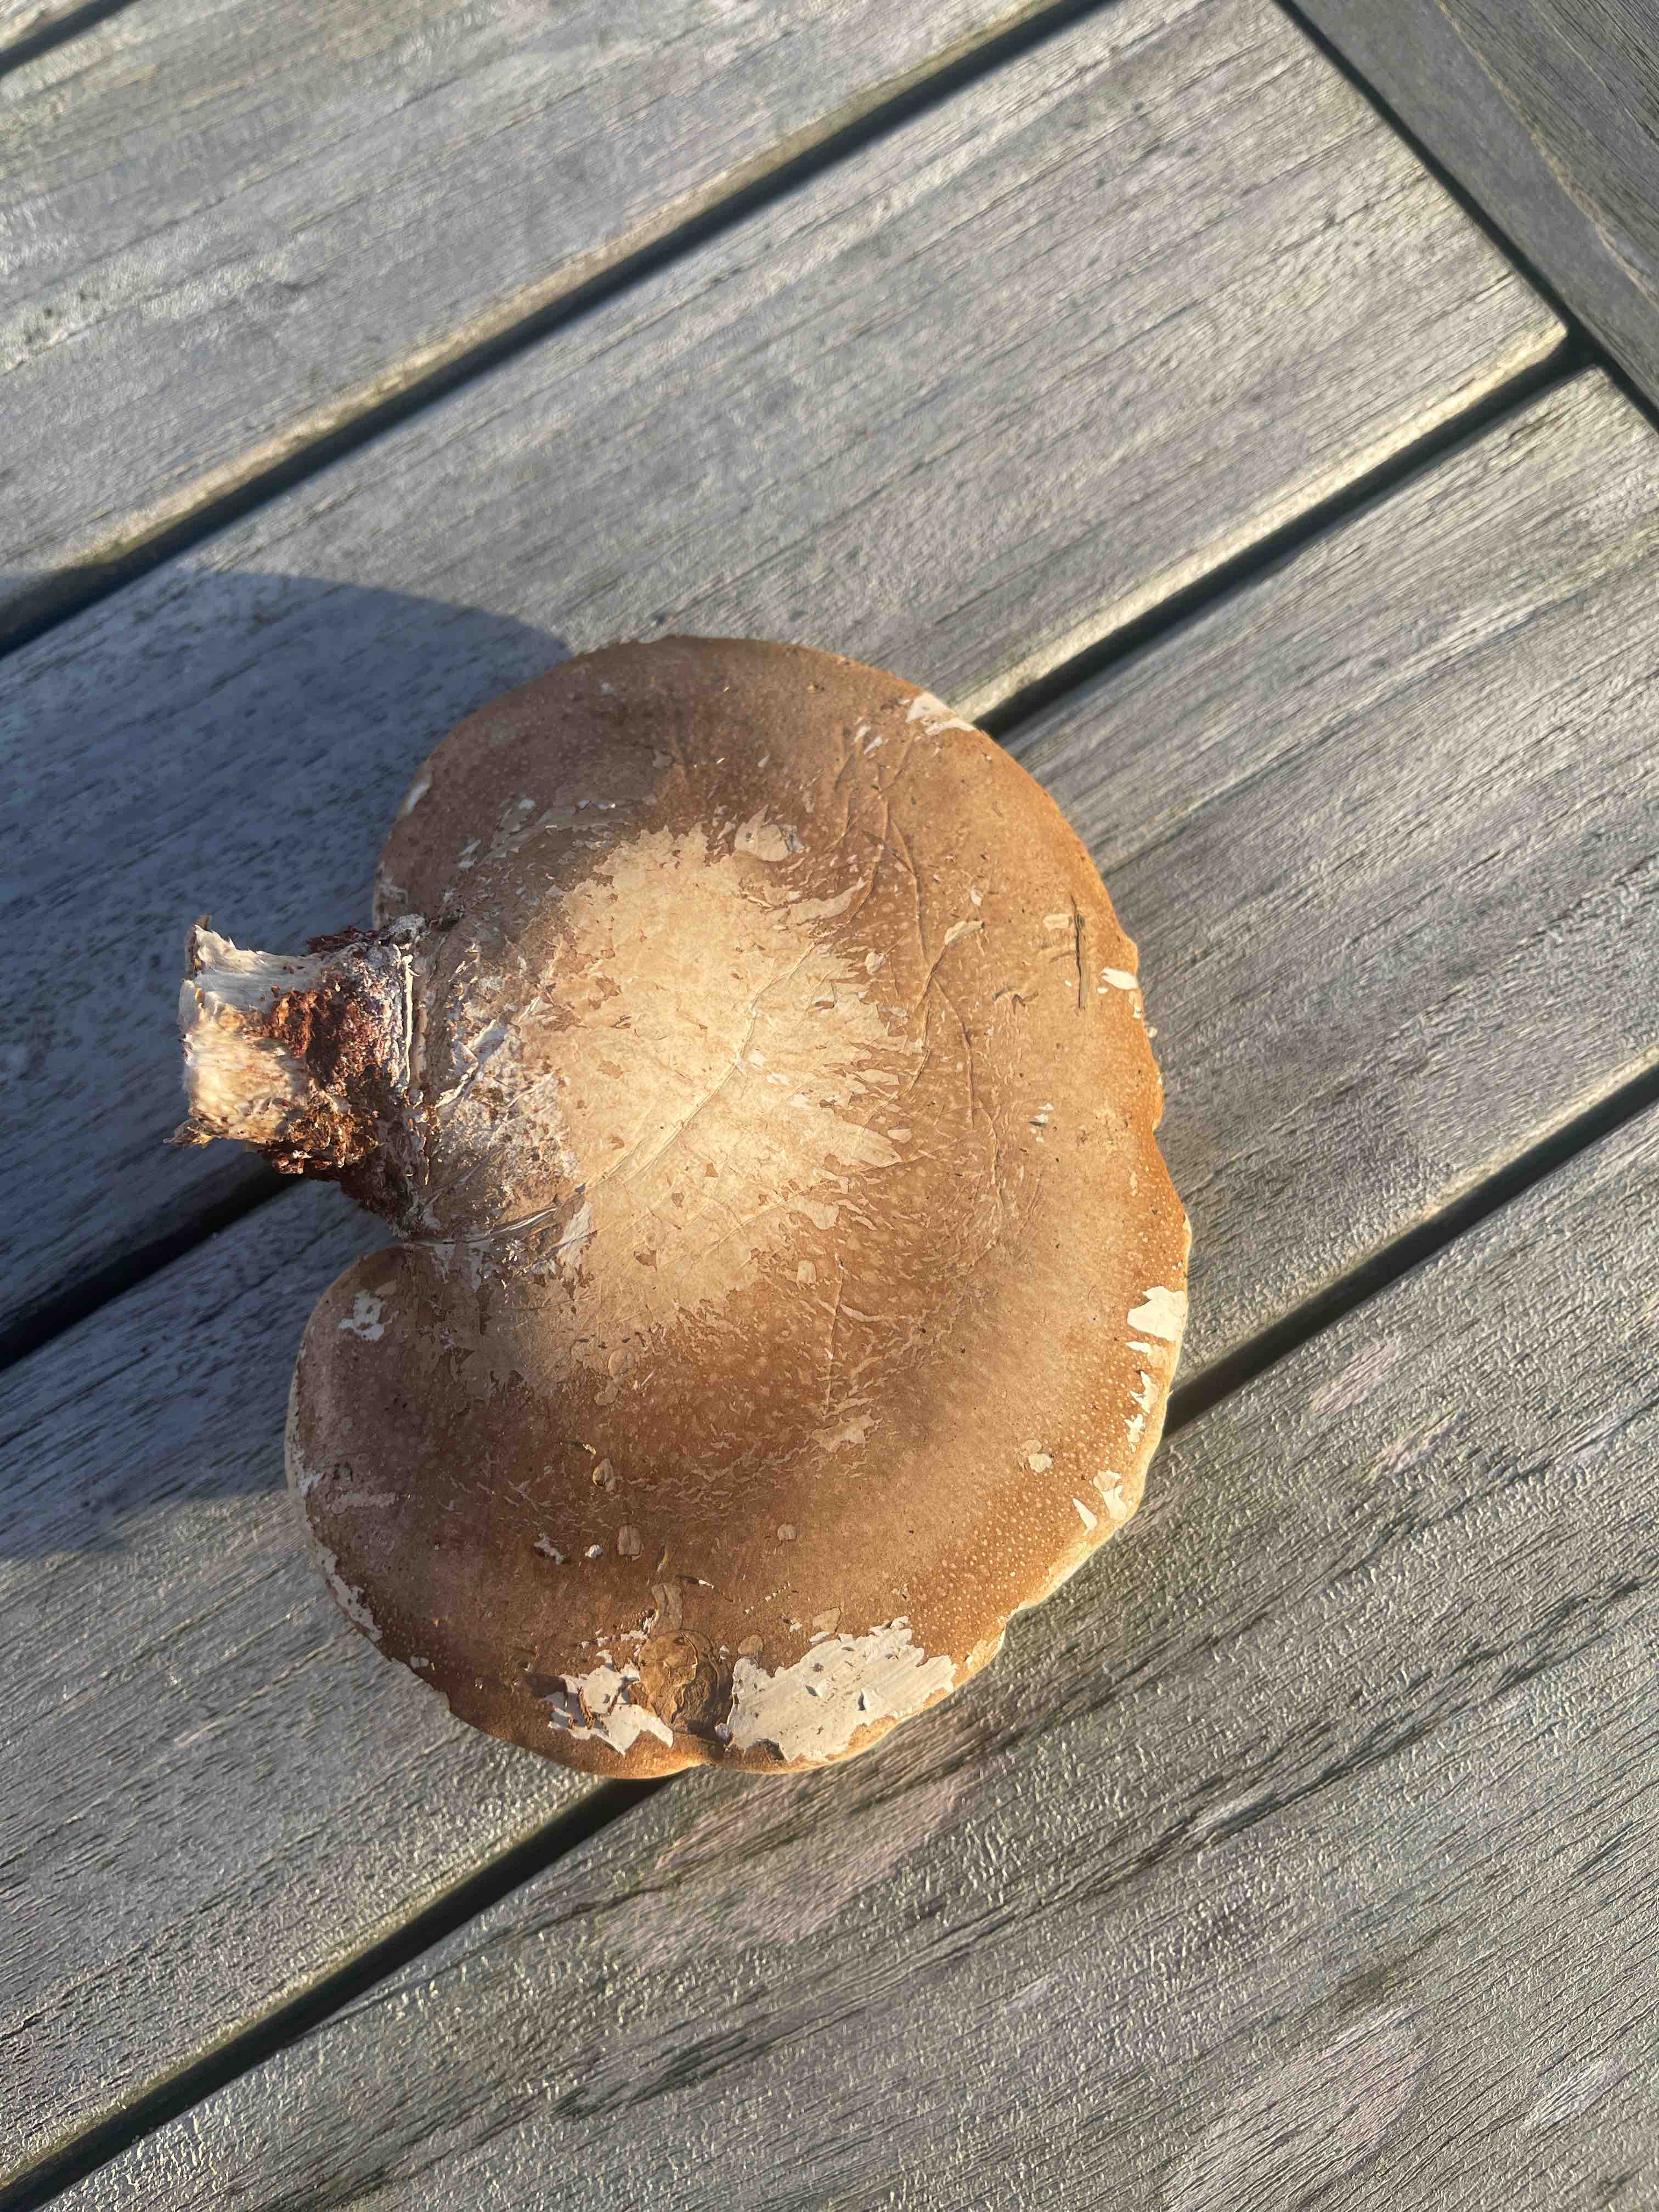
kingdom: Fungi
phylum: Basidiomycota
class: Agaricomycetes
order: Polyporales
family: Fomitopsidaceae
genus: Fomitopsis
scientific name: Fomitopsis betulina
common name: birkeporesvamp
